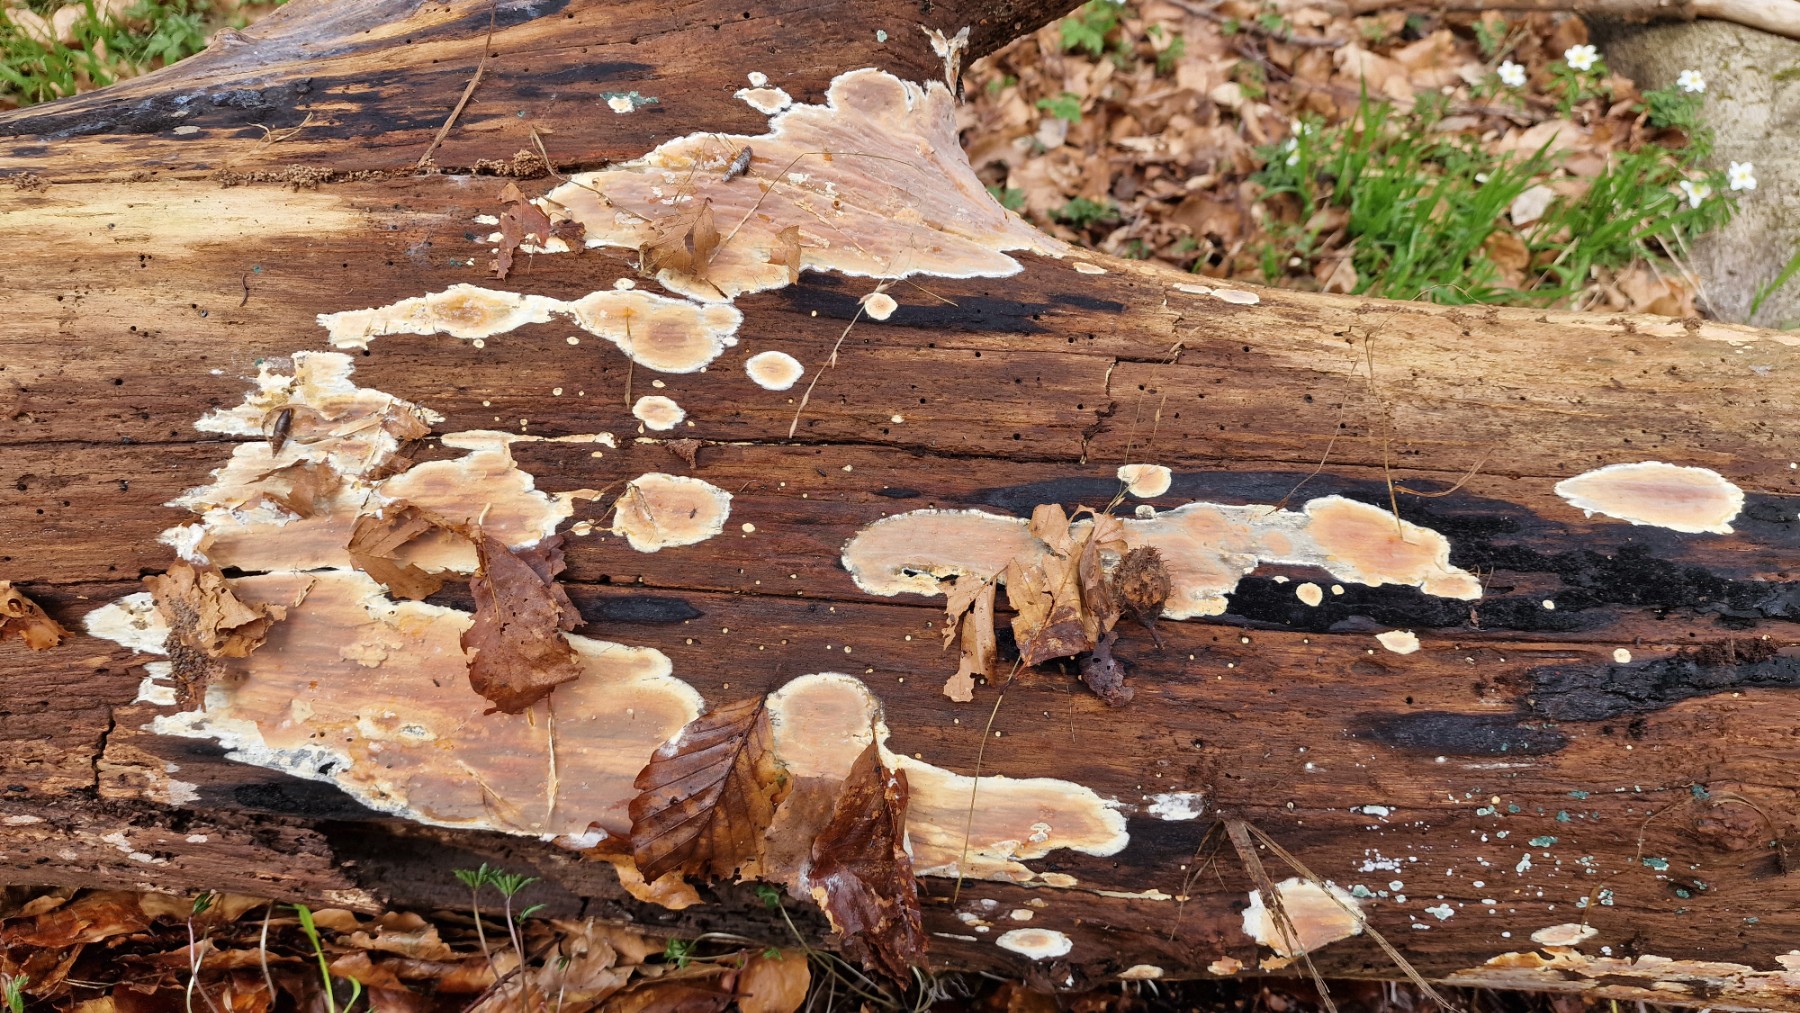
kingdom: Fungi
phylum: Basidiomycota
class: Agaricomycetes
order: Russulales
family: Peniophoraceae
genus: Scytinostroma
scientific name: Scytinostroma hemidichophyticum
